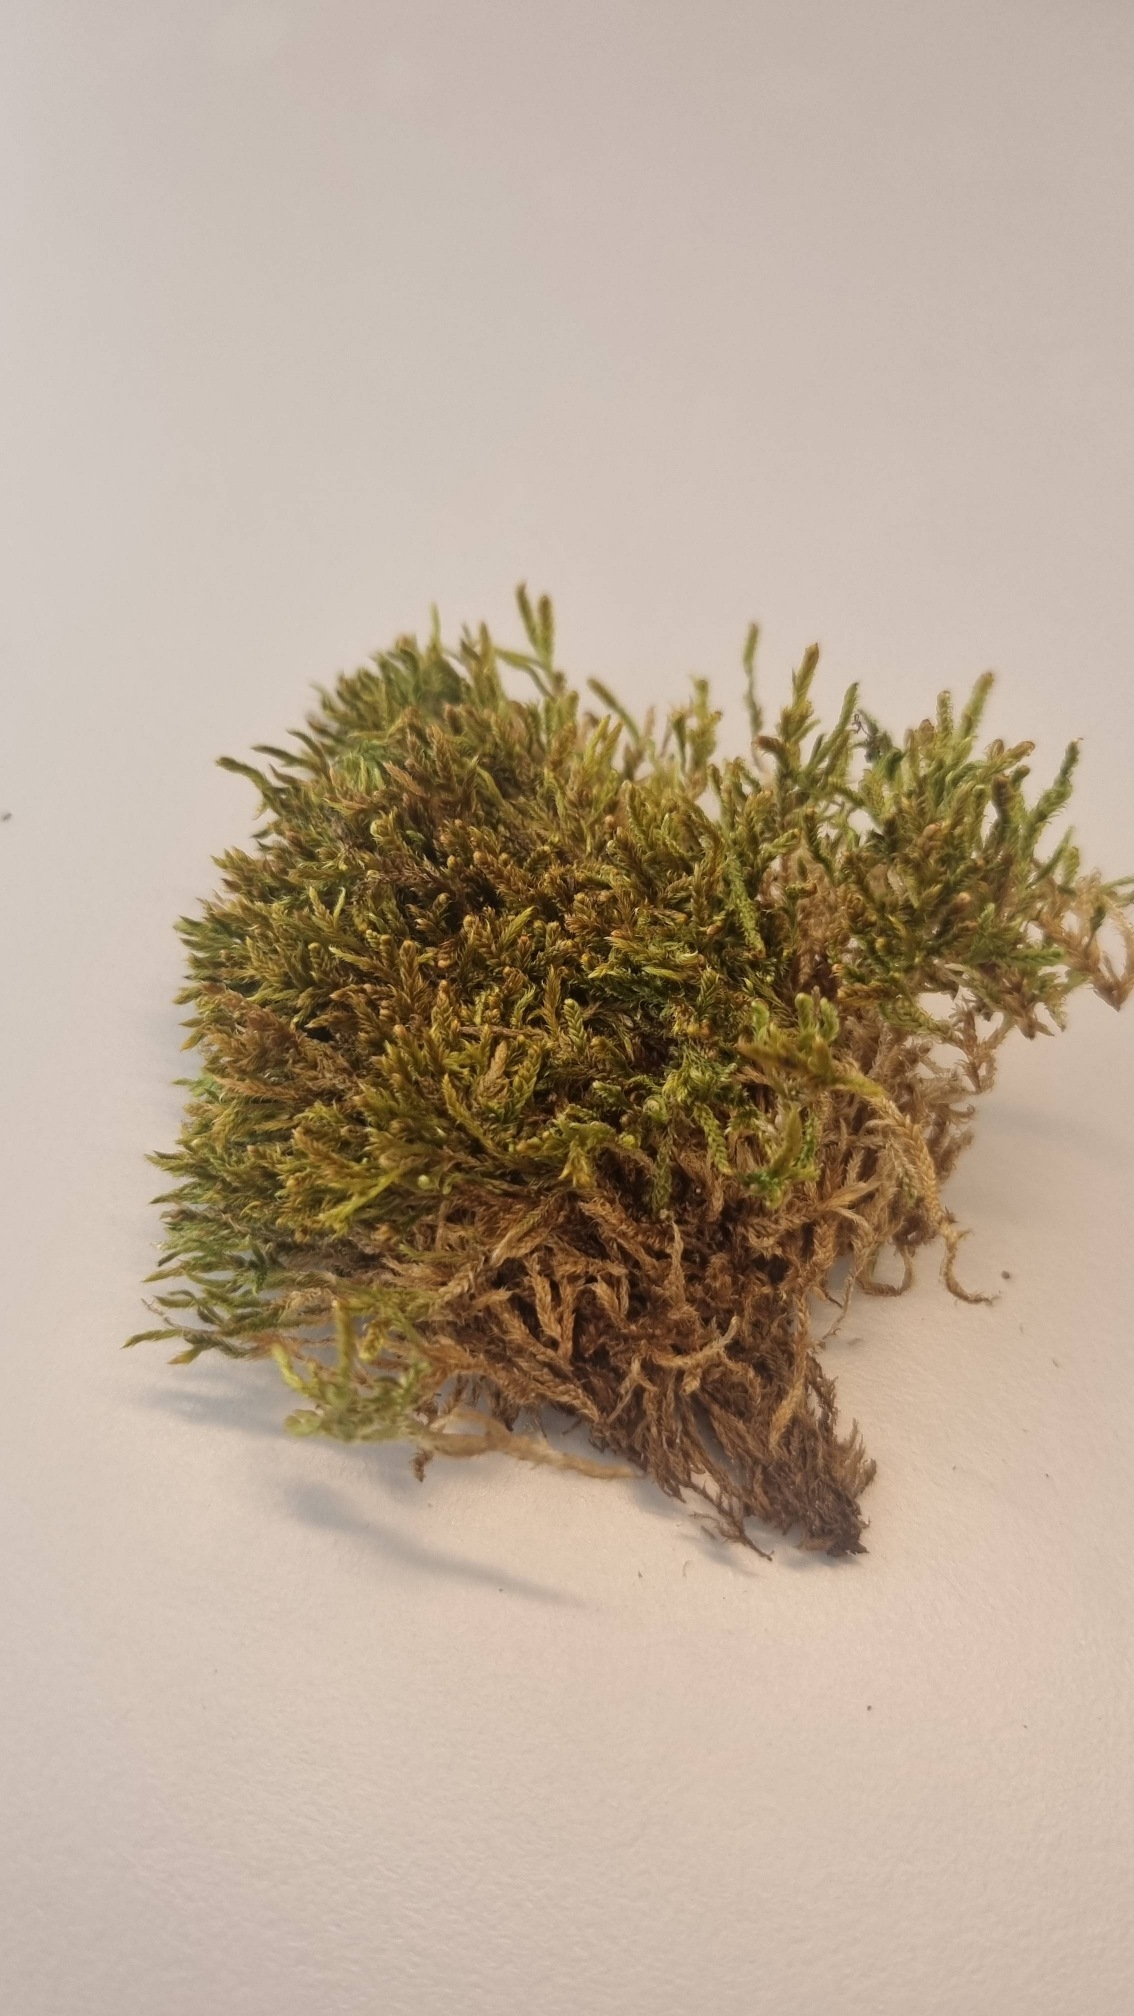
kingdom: Plantae
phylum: Bryophyta
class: Bryopsida
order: Hypnales
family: Hypnaceae
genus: Hypnum
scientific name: Hypnum cupressiforme
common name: Almindelig cypresmos
